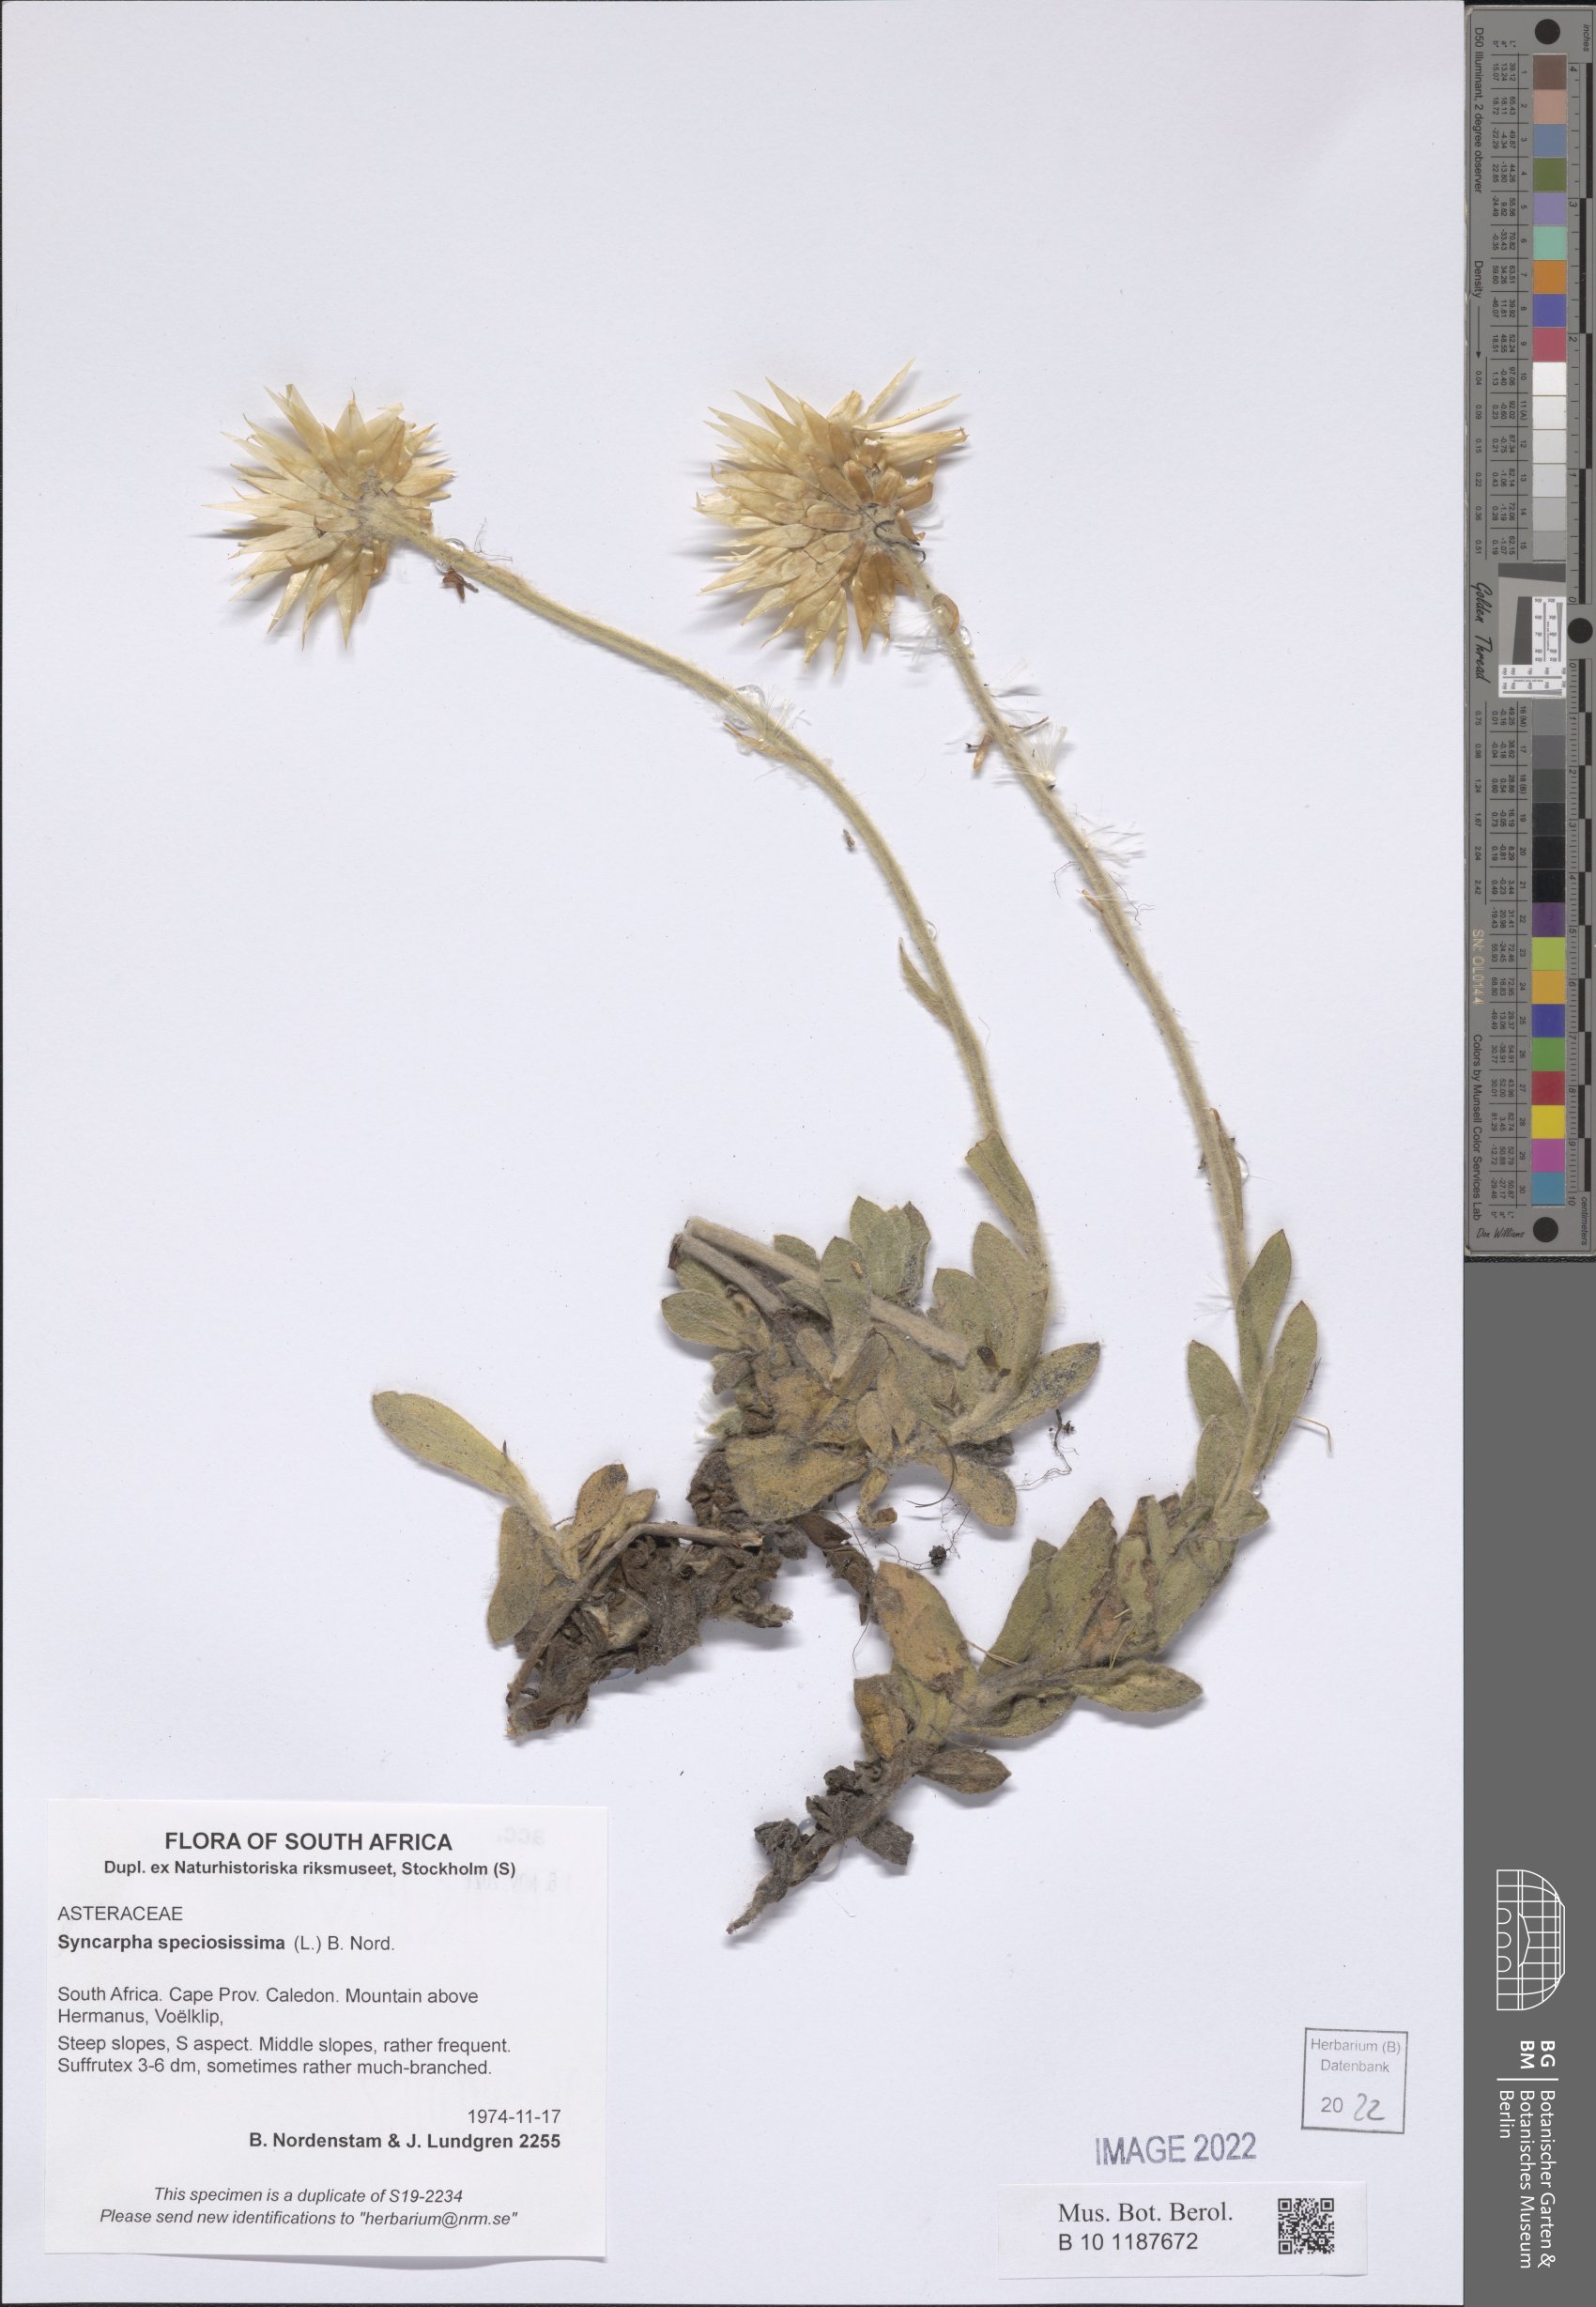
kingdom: Plantae
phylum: Tracheophyta
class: Magnoliopsida
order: Asterales
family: Asteraceae
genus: Syncarpha
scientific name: Syncarpha speciosissima
